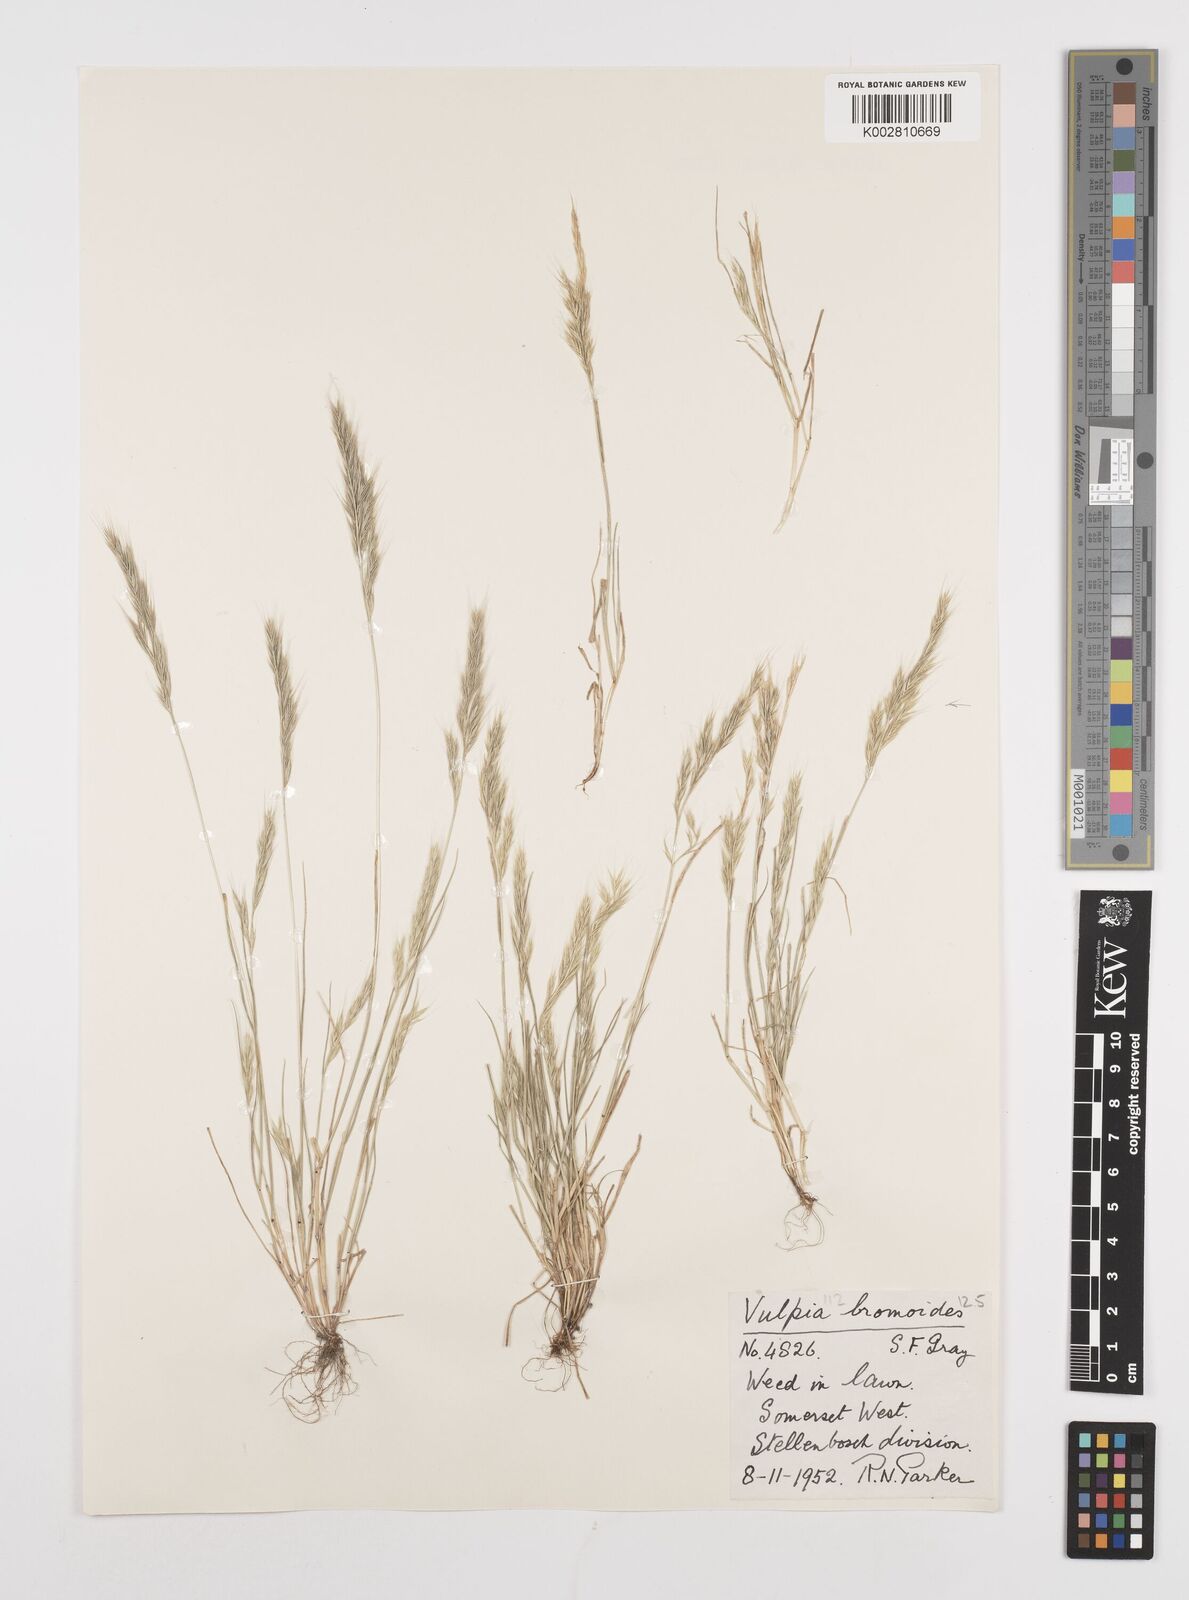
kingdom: Plantae
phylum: Tracheophyta
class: Liliopsida
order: Poales
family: Poaceae
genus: Festuca
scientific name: Festuca bromoides
